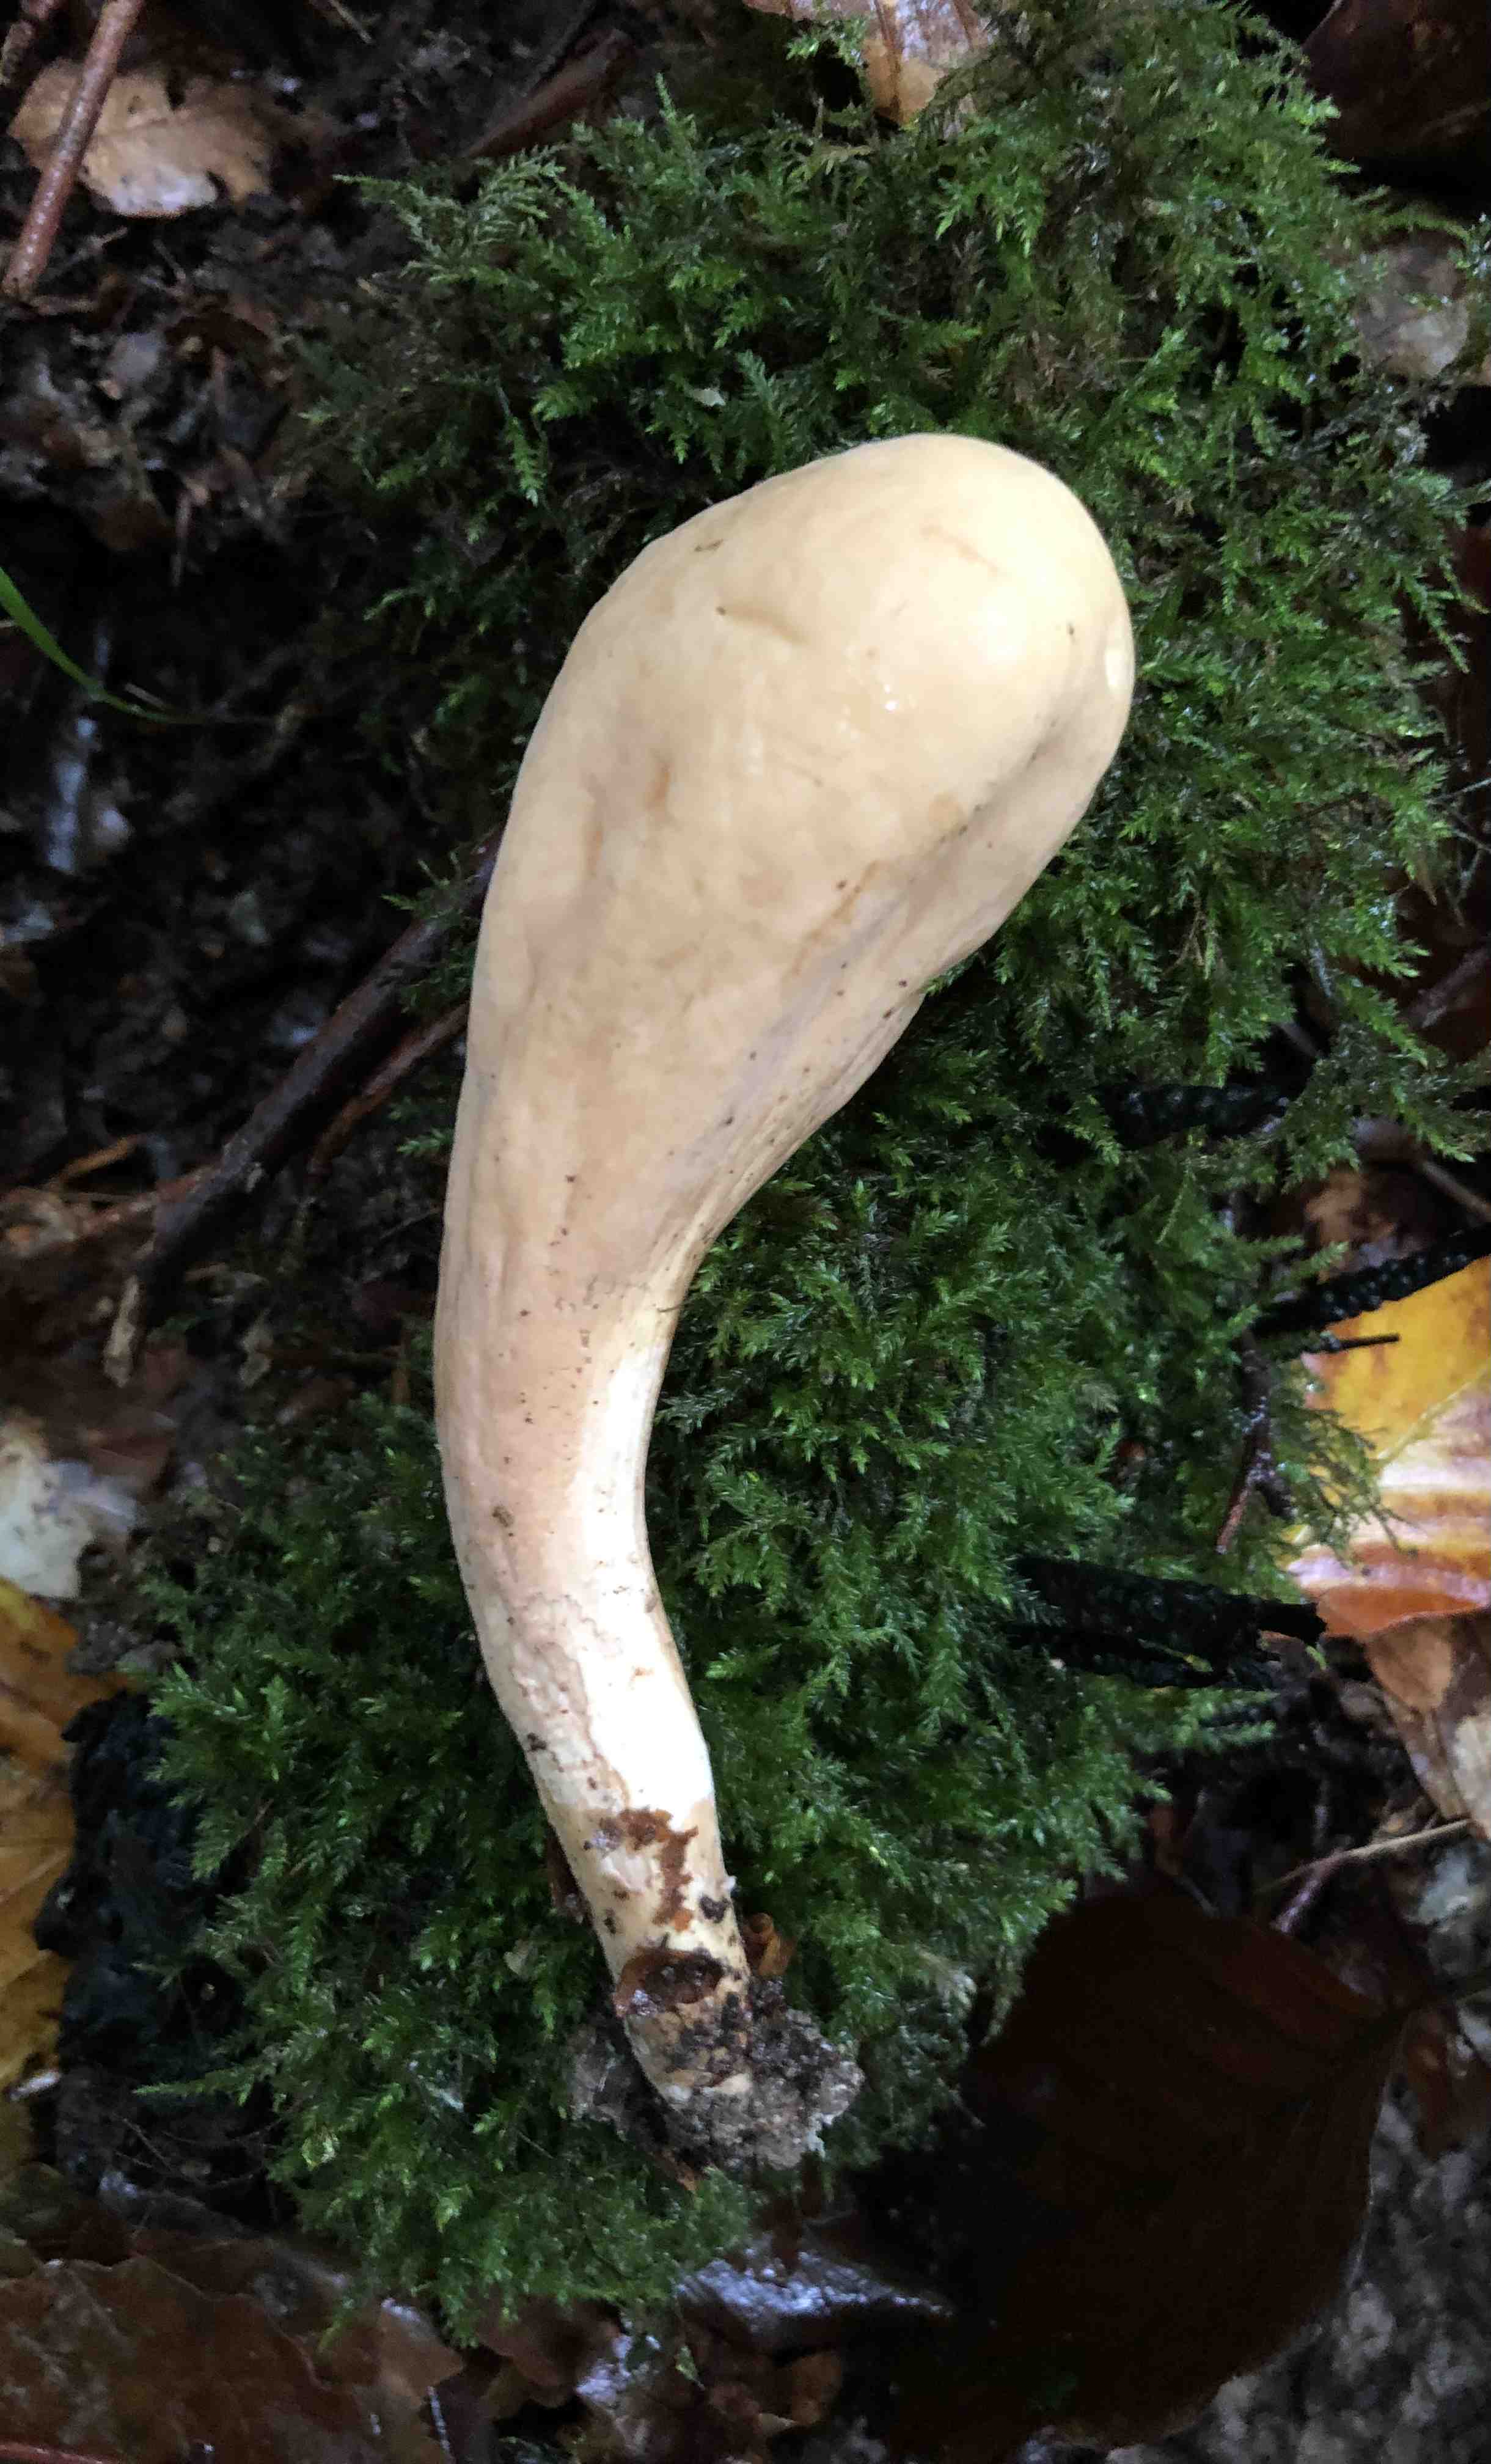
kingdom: Fungi
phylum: Basidiomycota
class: Agaricomycetes
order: Gomphales
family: Clavariadelphaceae
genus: Clavariadelphus
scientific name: Clavariadelphus pistillaris
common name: herkules-kæmpekølle
